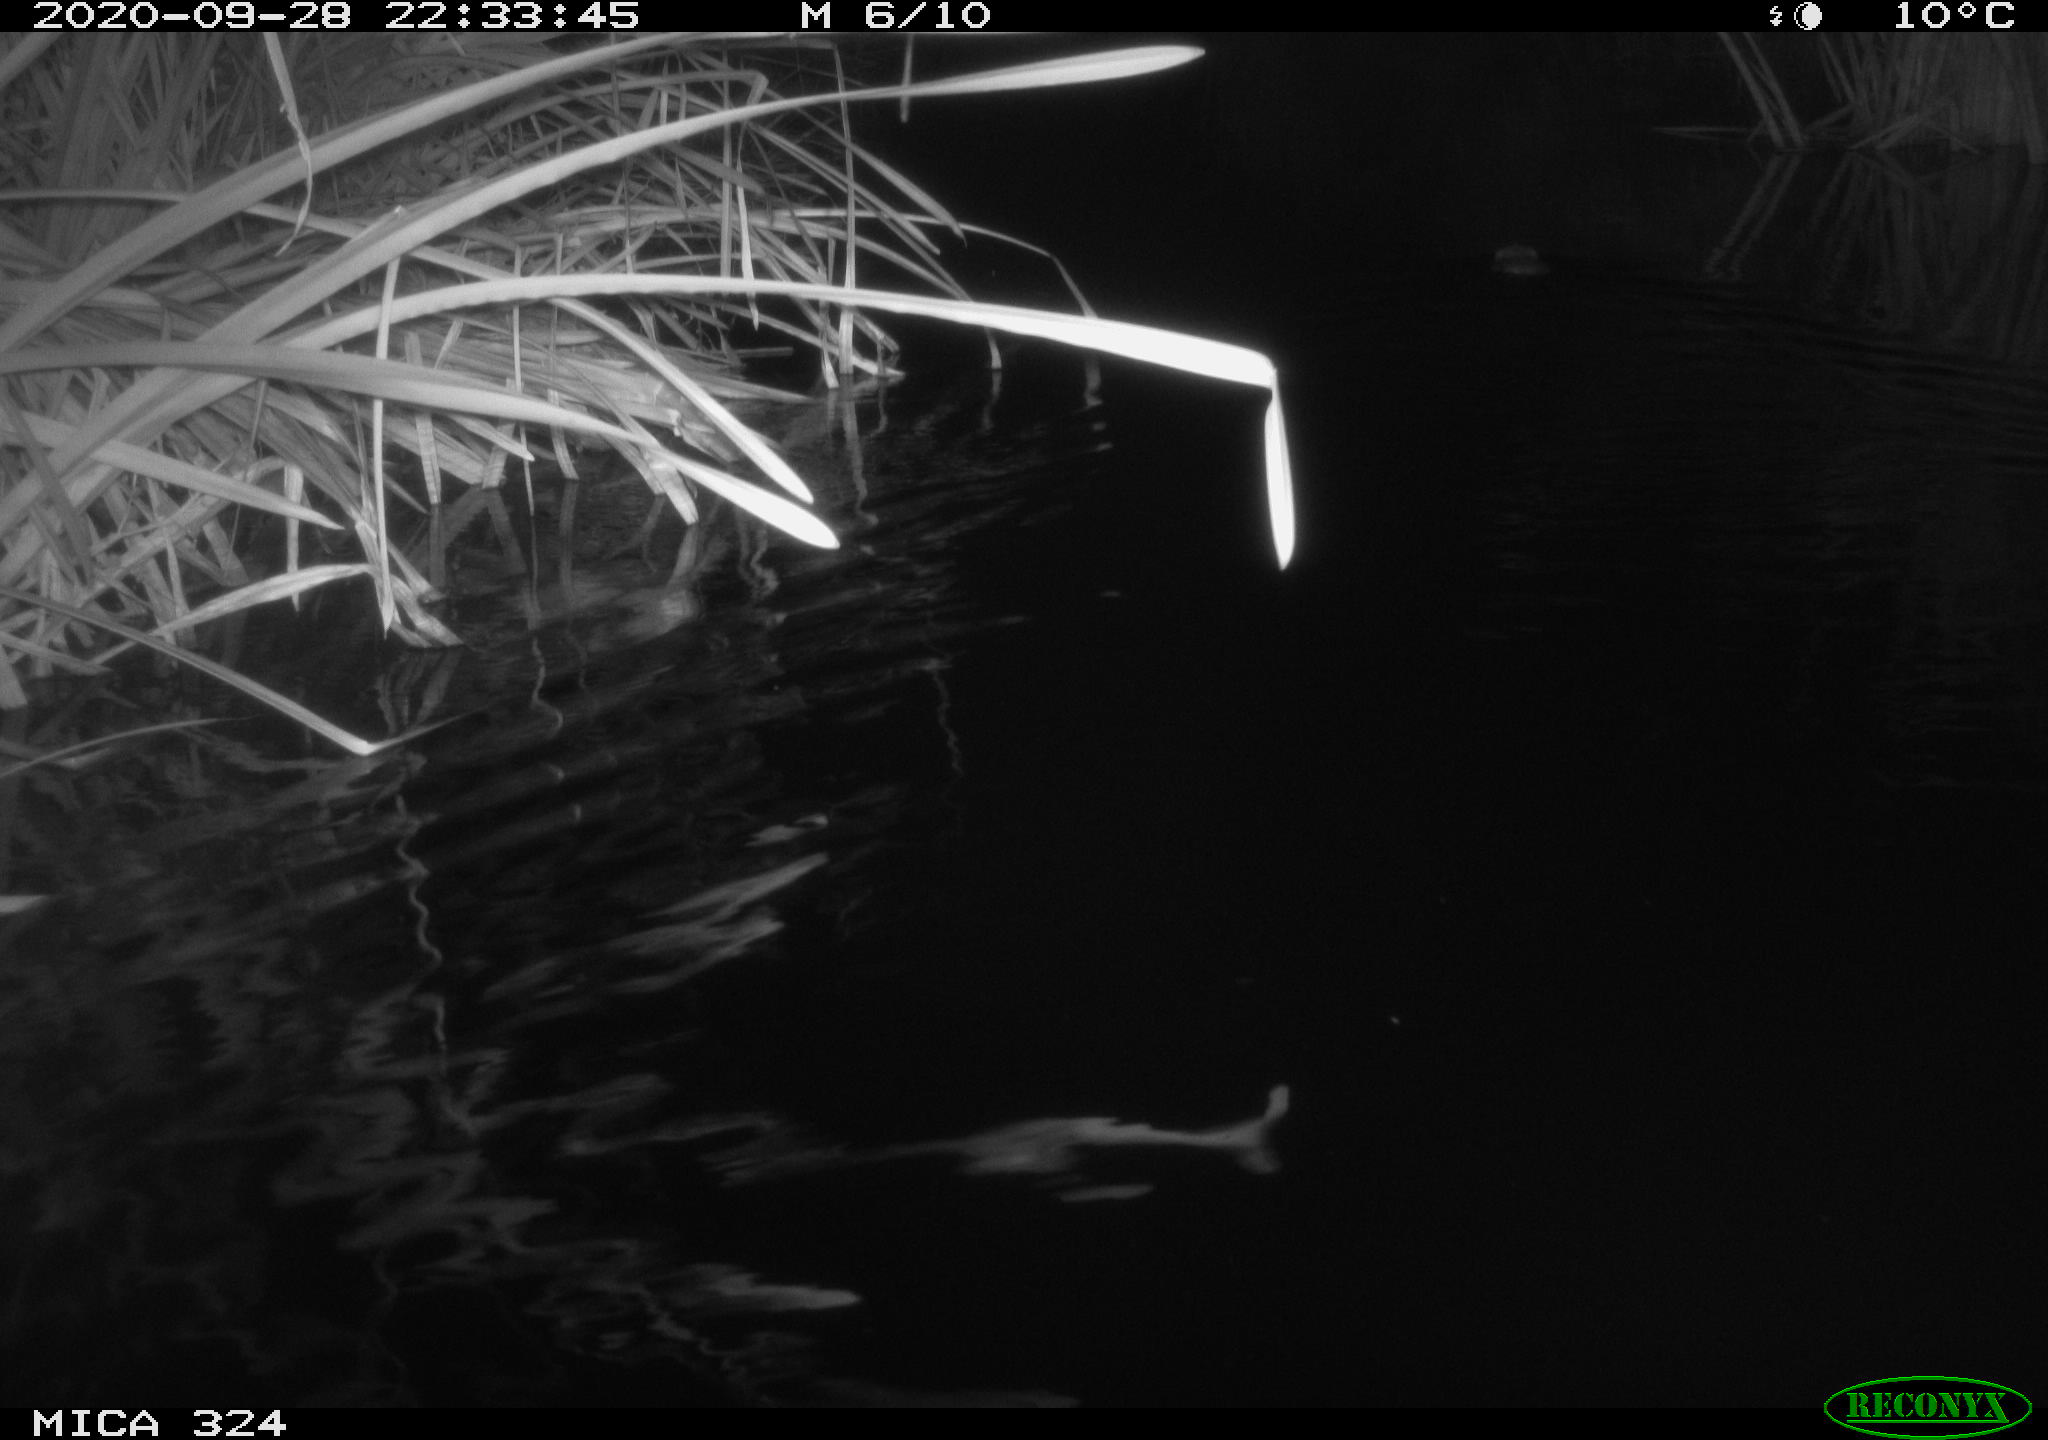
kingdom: Animalia
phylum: Chordata
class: Mammalia
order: Rodentia
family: Cricetidae
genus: Ondatra
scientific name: Ondatra zibethicus
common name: Muskrat
